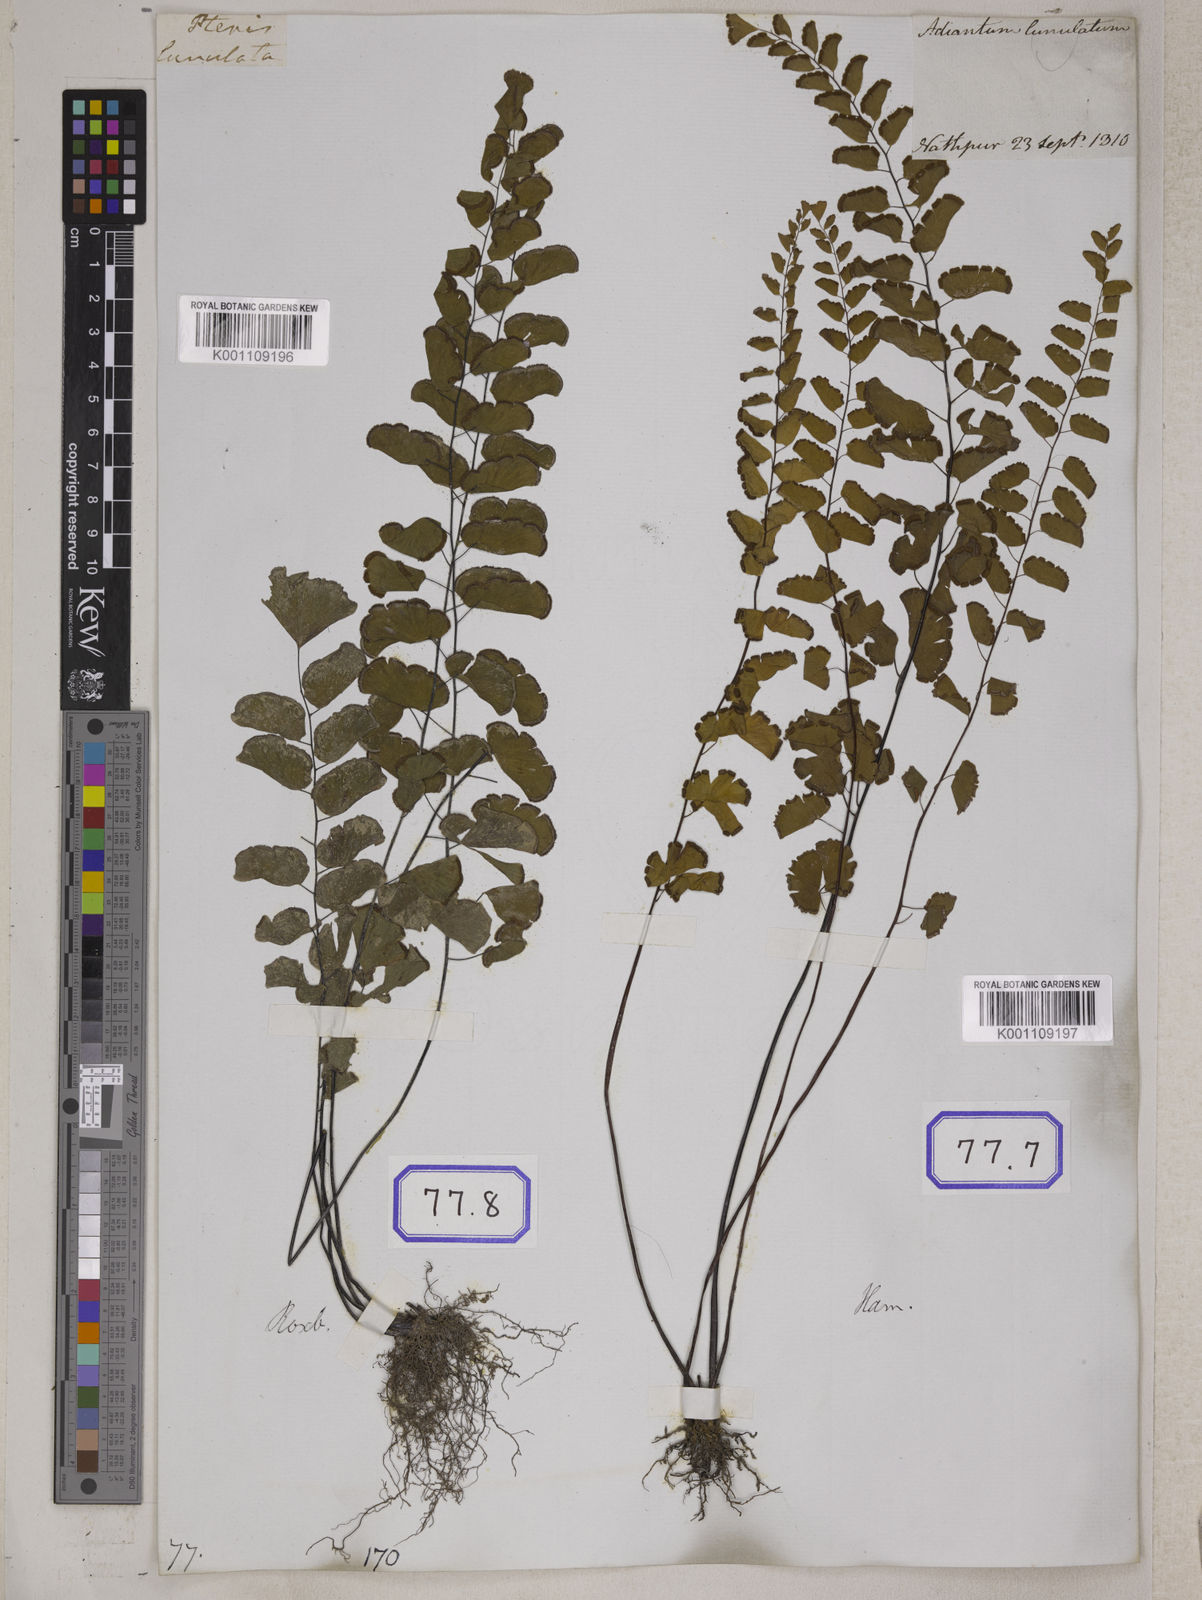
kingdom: Plantae
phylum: Tracheophyta
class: Polypodiopsida
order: Polypodiales
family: Pteridaceae
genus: Adiantum
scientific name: Adiantum philippense
